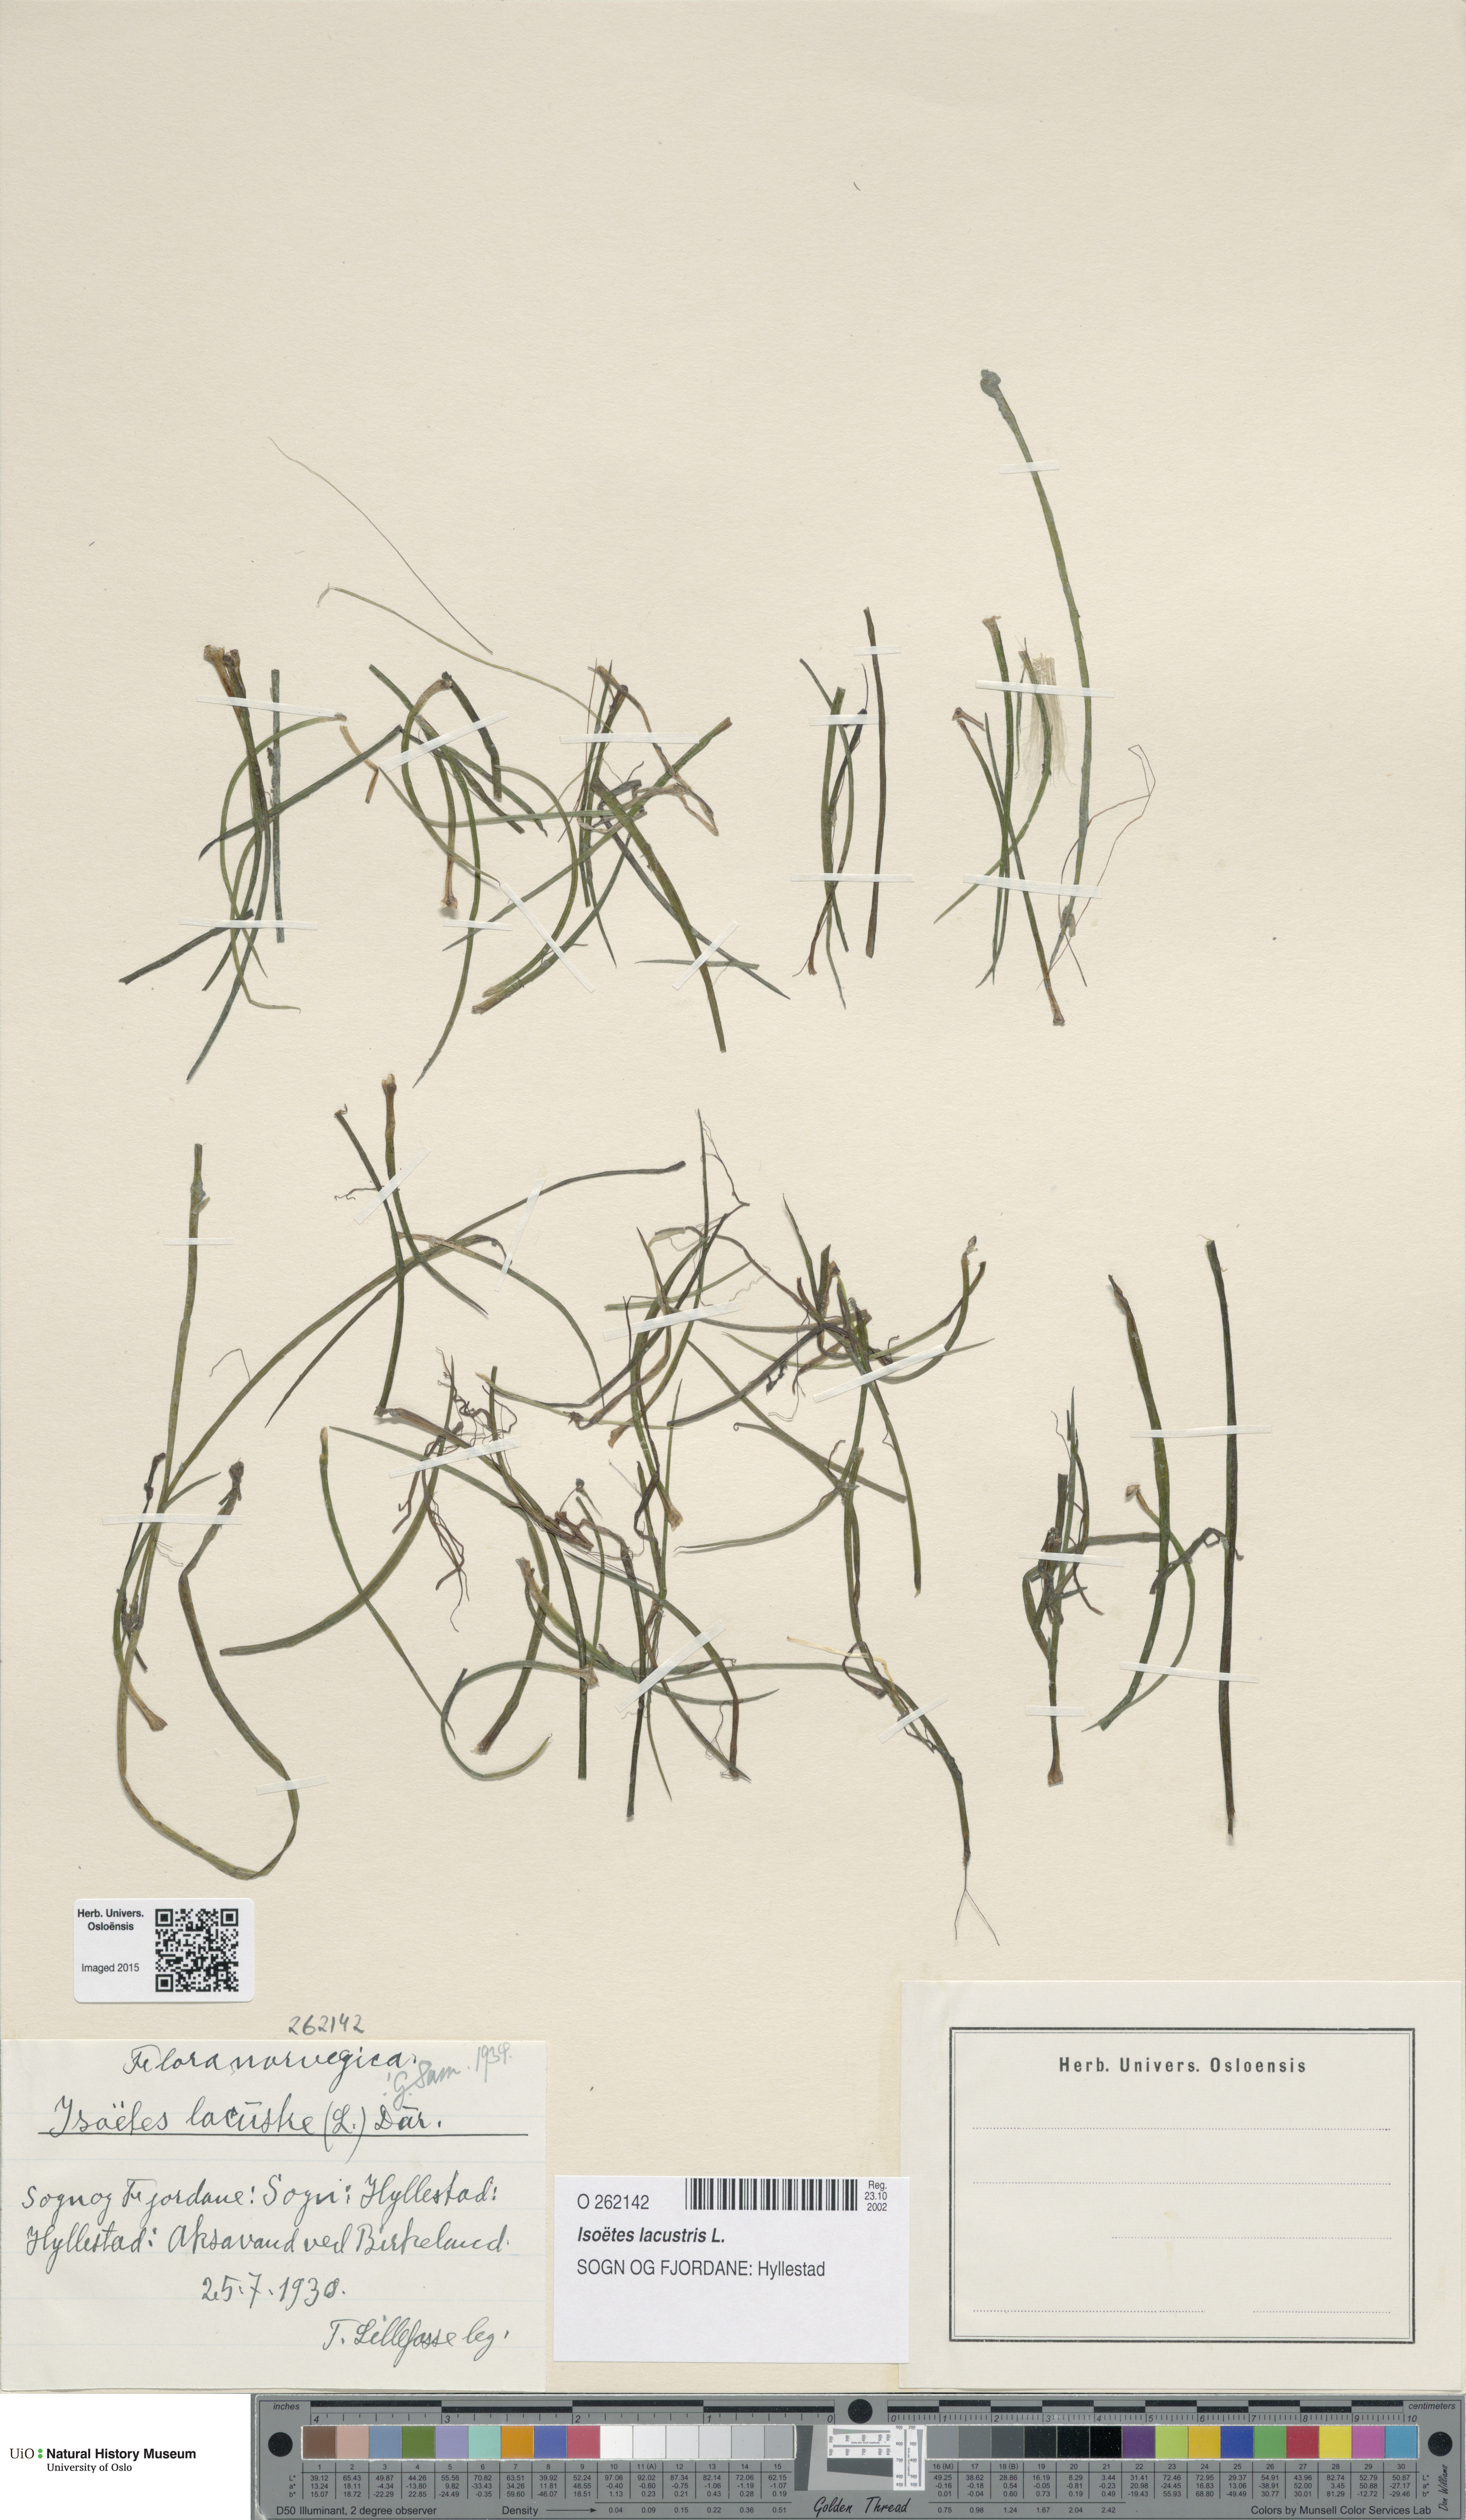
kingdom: Plantae
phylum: Tracheophyta
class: Lycopodiopsida
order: Isoetales
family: Isoetaceae
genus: Isoetes
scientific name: Isoetes lacustris
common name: Common quillwort
